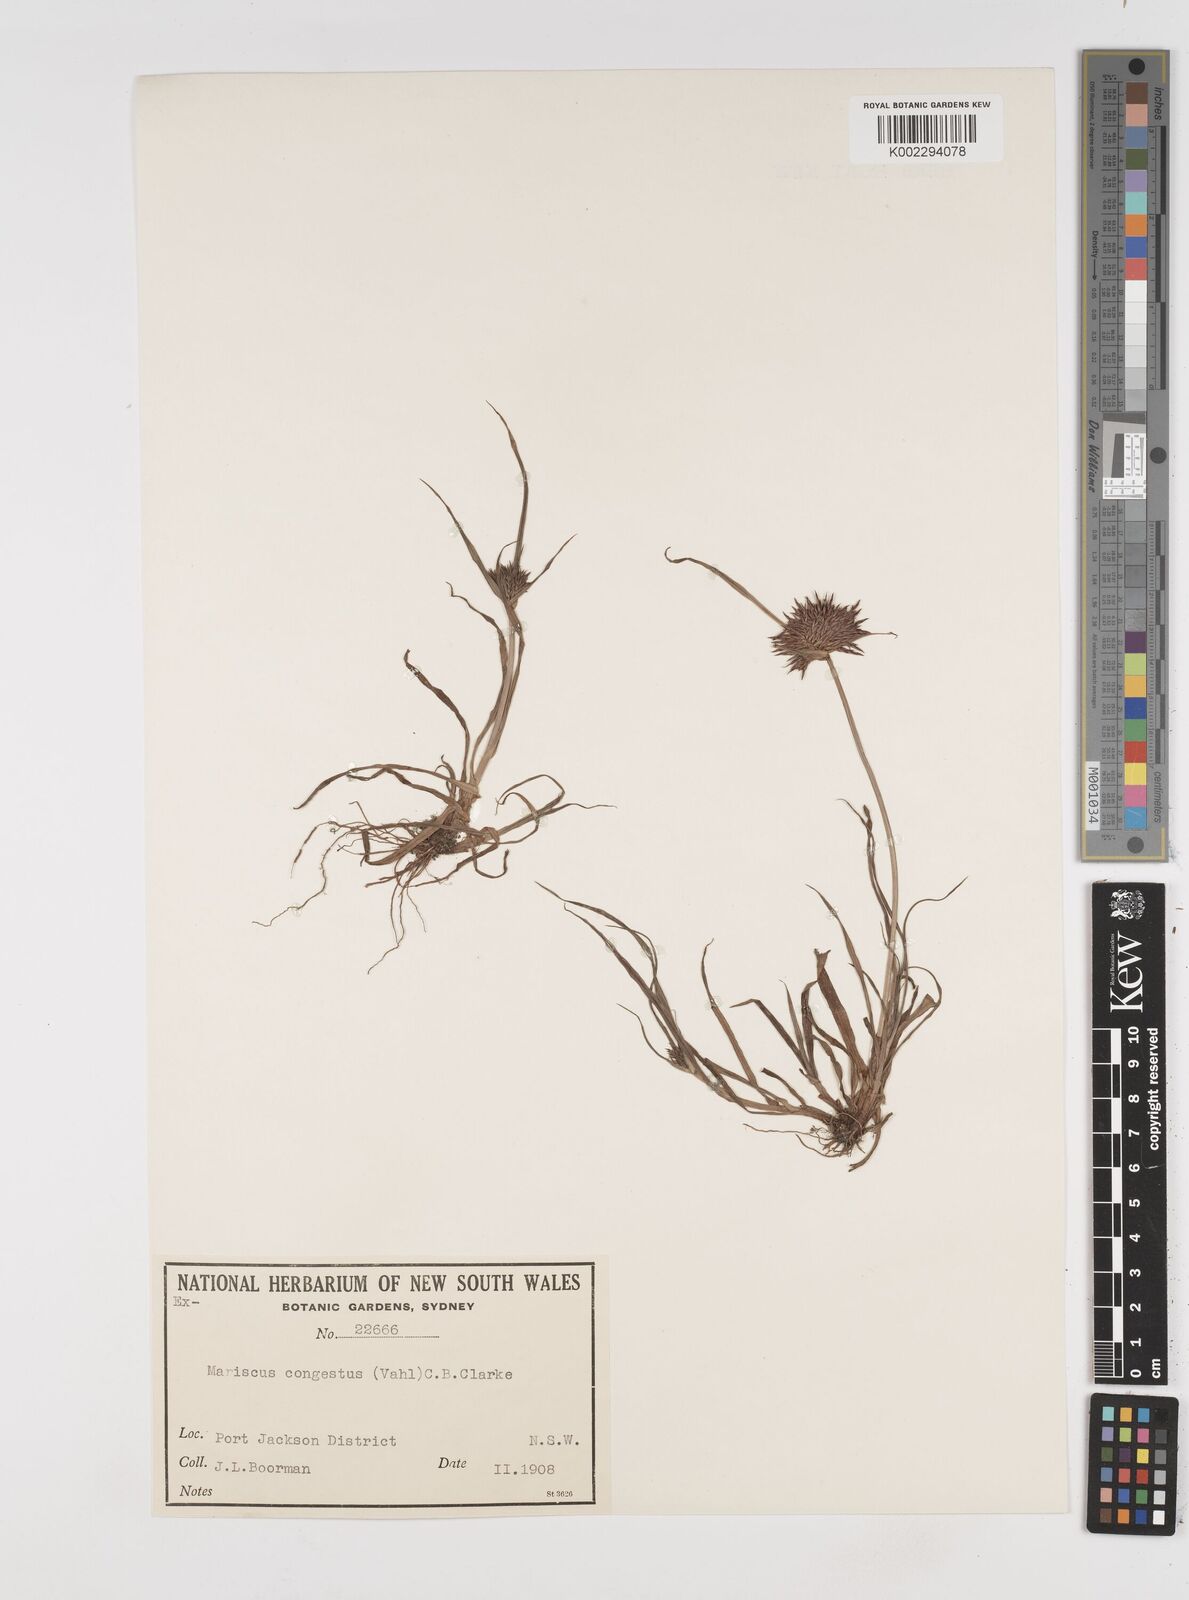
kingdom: Plantae
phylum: Tracheophyta
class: Liliopsida
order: Poales
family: Cyperaceae
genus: Cyperus
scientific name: Cyperus congestus
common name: Dense flat sedge
